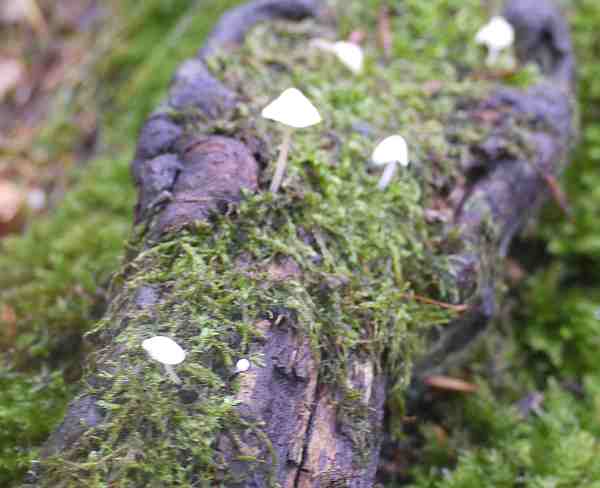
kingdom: Fungi
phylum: Basidiomycota
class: Agaricomycetes
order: Agaricales
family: Porotheleaceae
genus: Phloeomana
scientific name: Phloeomana speirea
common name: kvist-huesvamp
